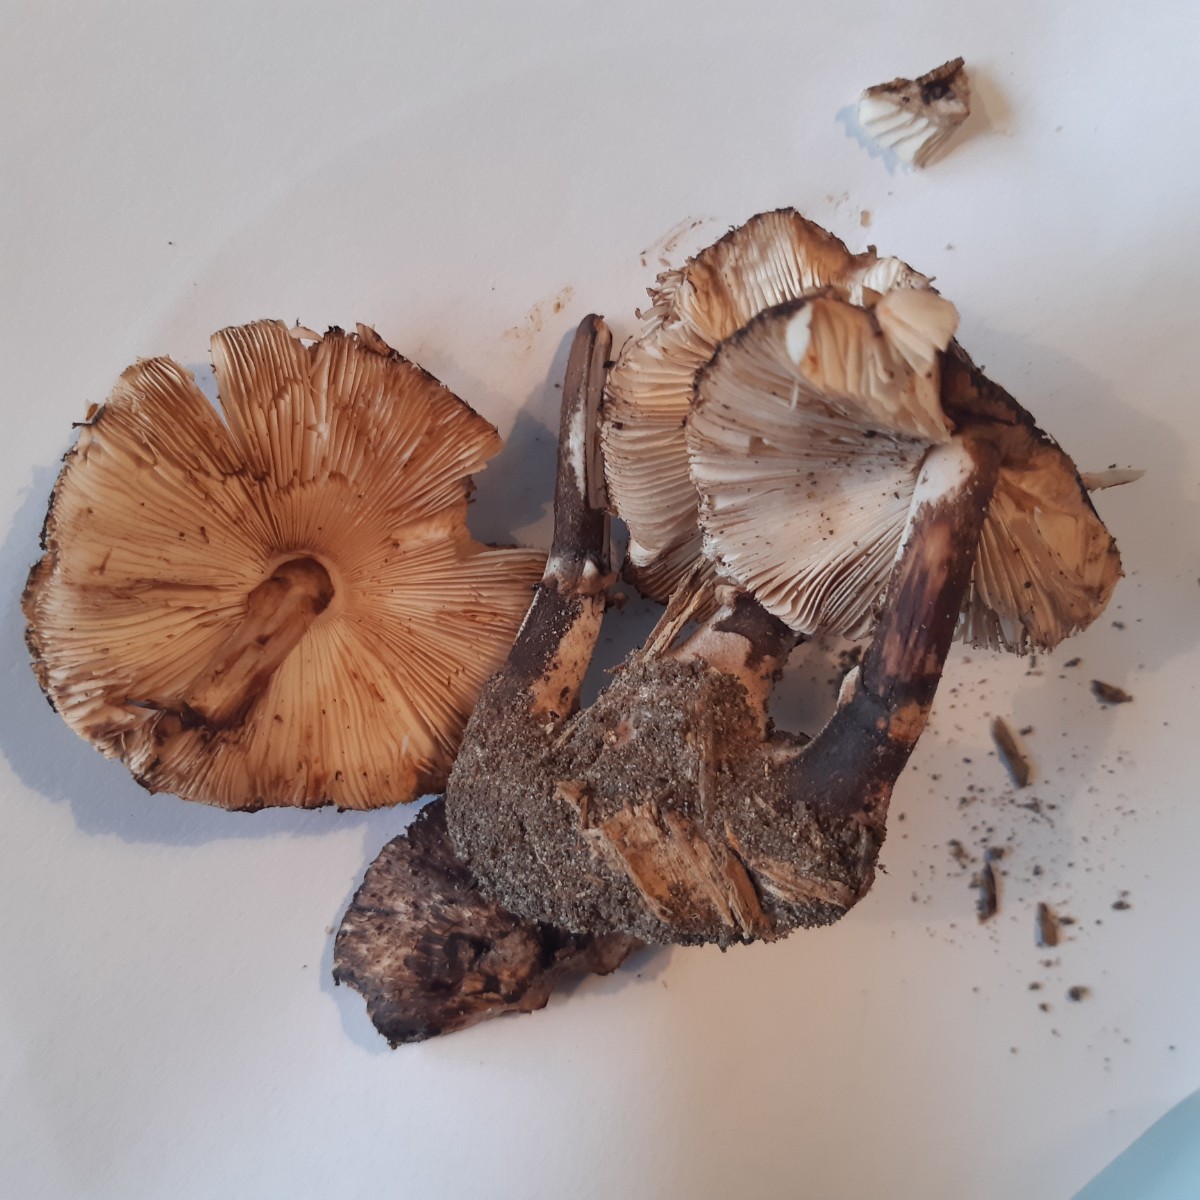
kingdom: Fungi
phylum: Basidiomycota
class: Agaricomycetes
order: Agaricales
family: Agaricaceae
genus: Leucoagaricus
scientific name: Leucoagaricus badhamii
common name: rødmende silkehat
